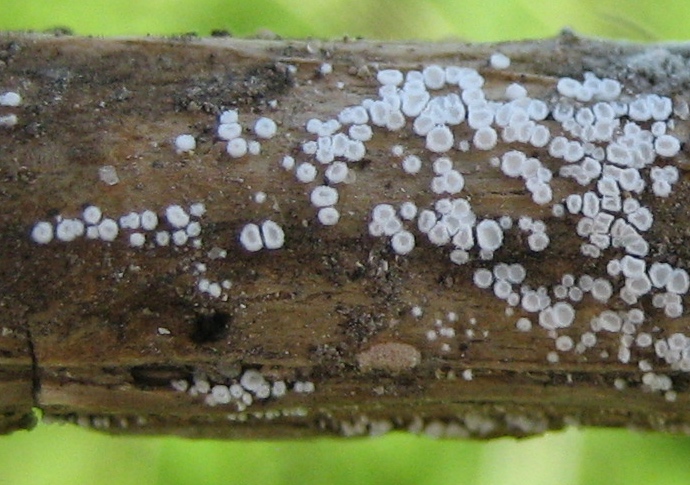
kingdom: Fungi
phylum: Basidiomycota
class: Agaricomycetes
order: Agaricales
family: Cyphellaceae
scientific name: Cyphellaceae
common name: hængeskåle
